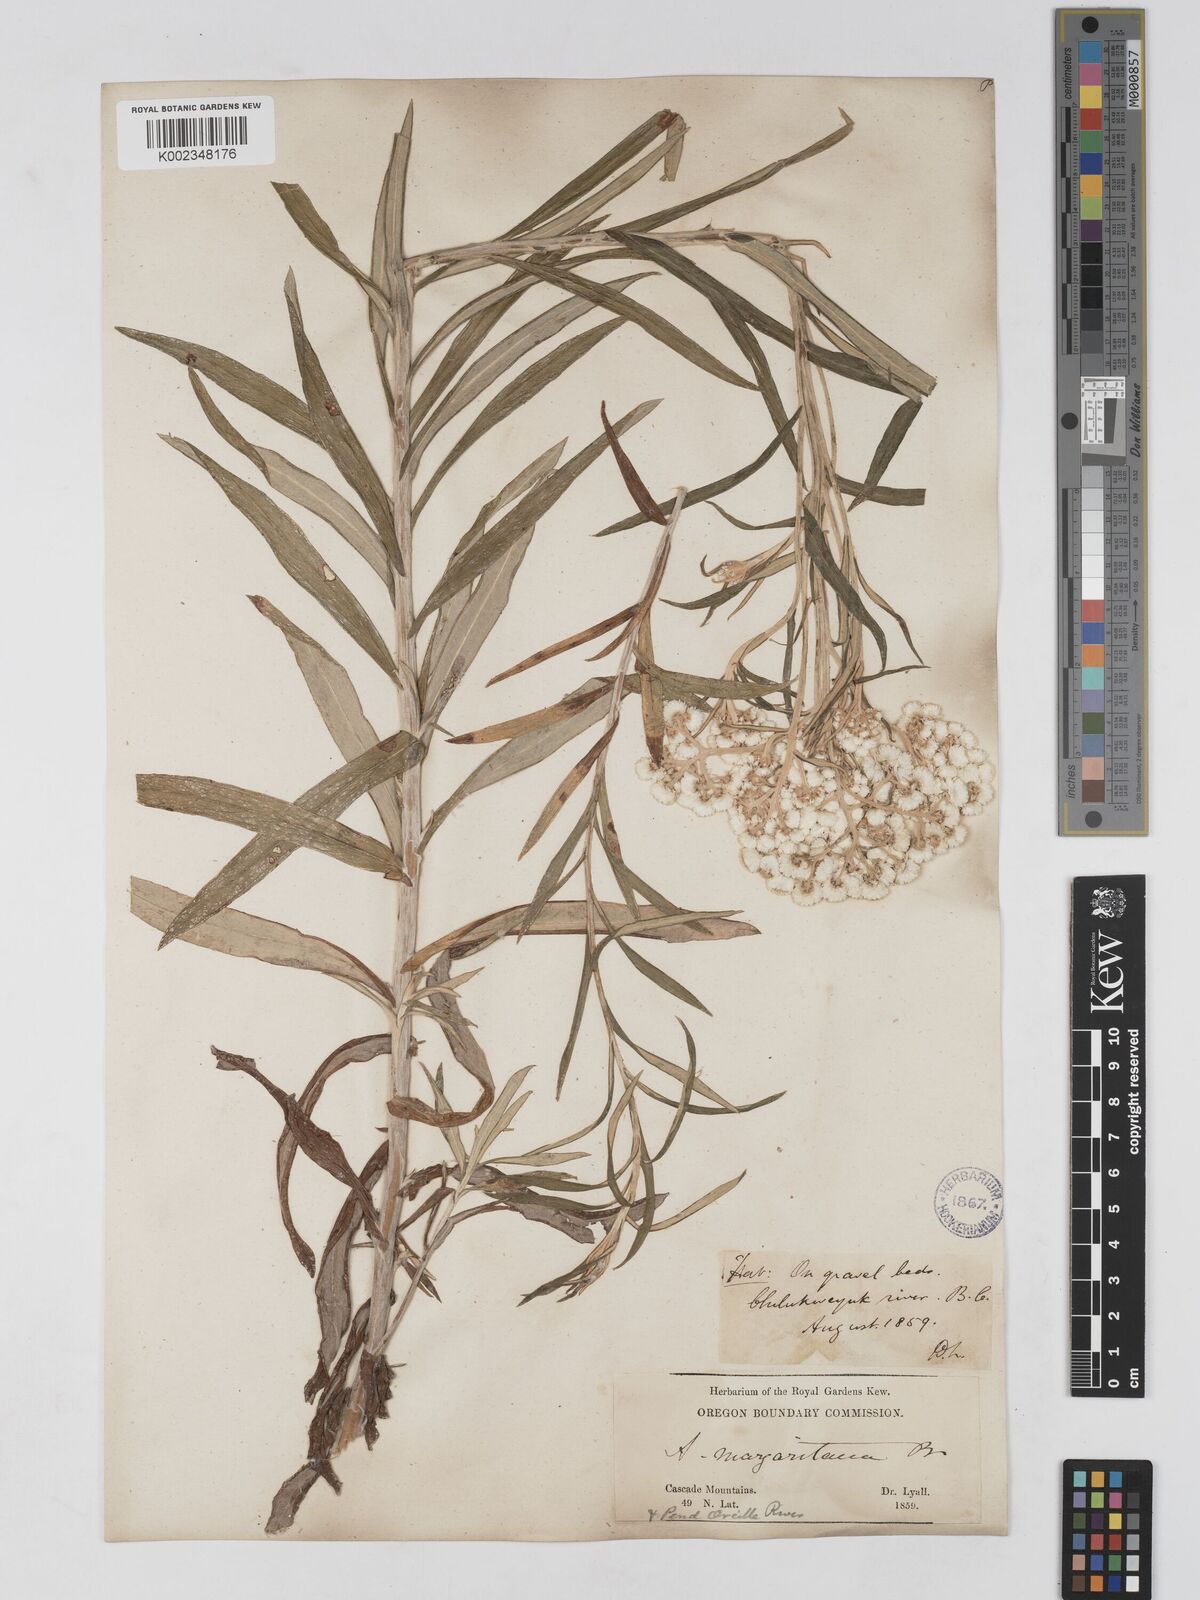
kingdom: Plantae
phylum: Tracheophyta
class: Magnoliopsida
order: Asterales
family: Asteraceae
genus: Anaphalis
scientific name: Anaphalis margaritacea
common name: Pearly everlasting
